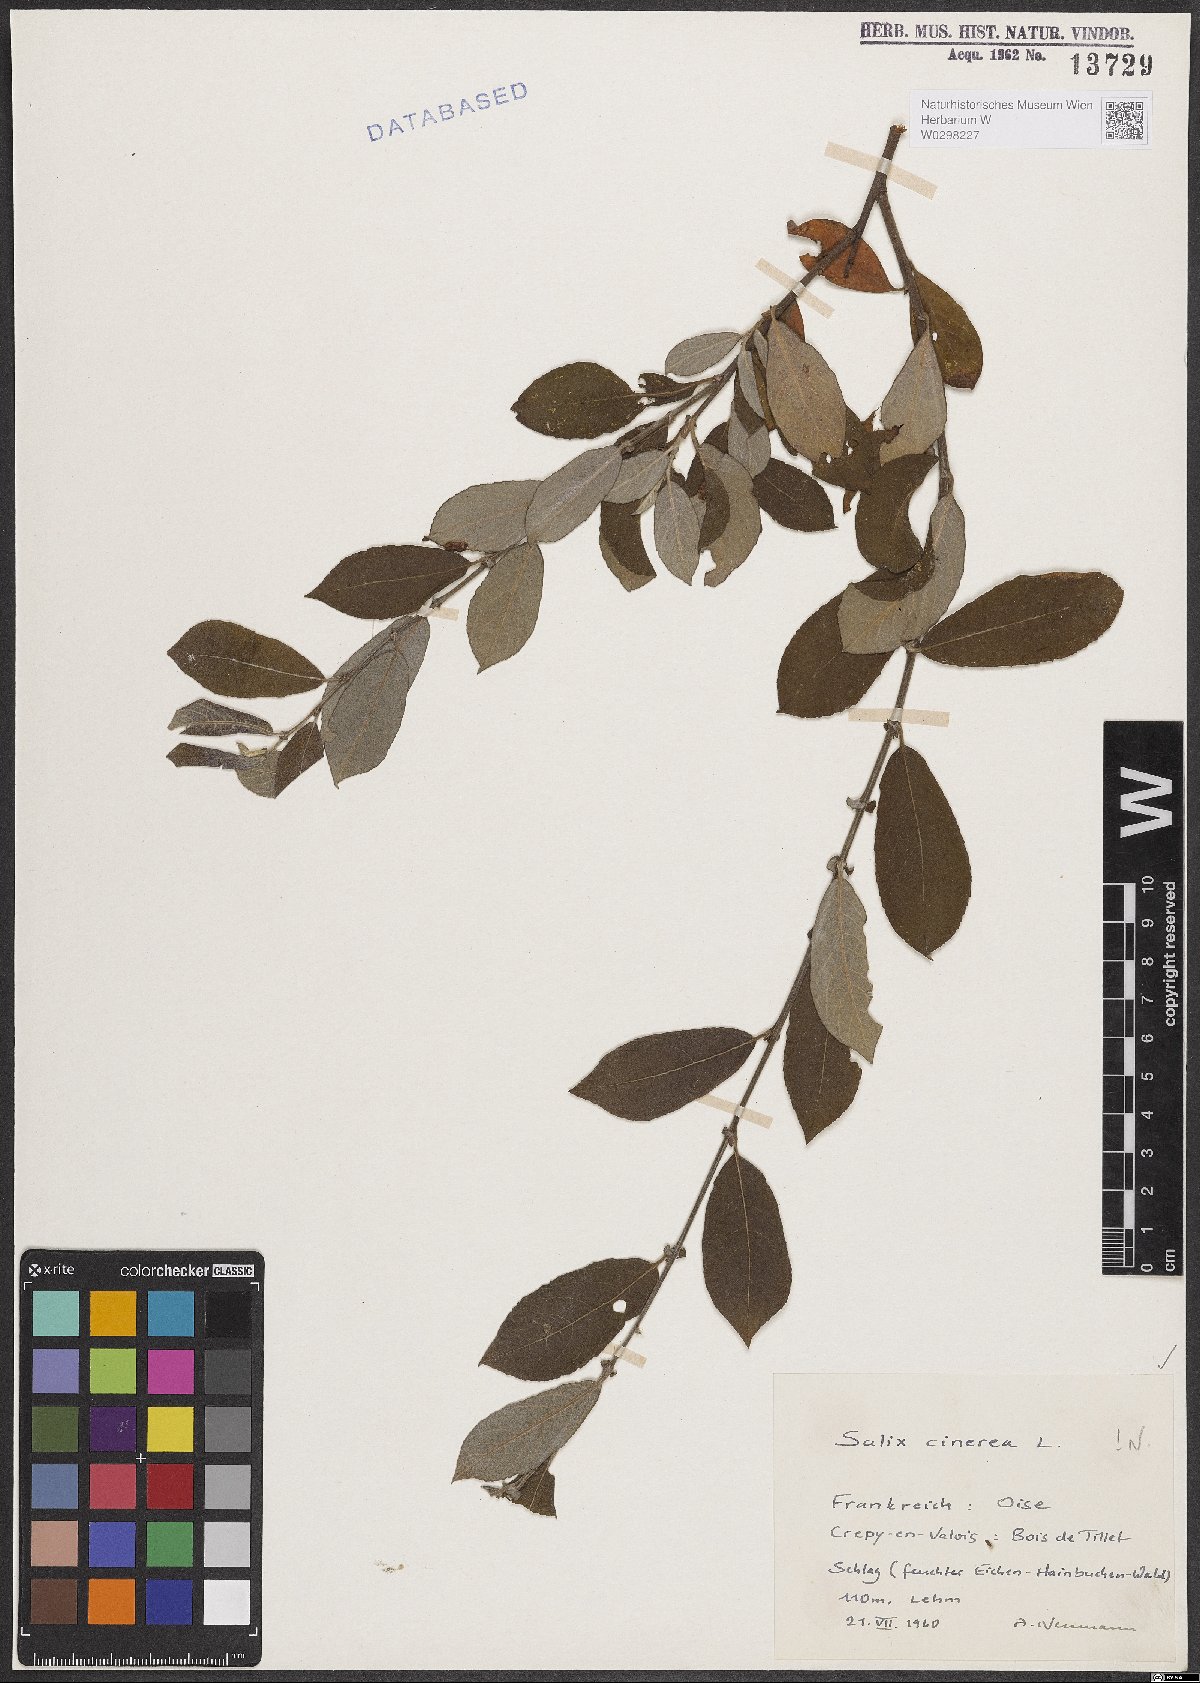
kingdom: Plantae
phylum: Tracheophyta
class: Magnoliopsida
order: Malpighiales
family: Salicaceae
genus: Salix
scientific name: Salix cinerea
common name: Common sallow
